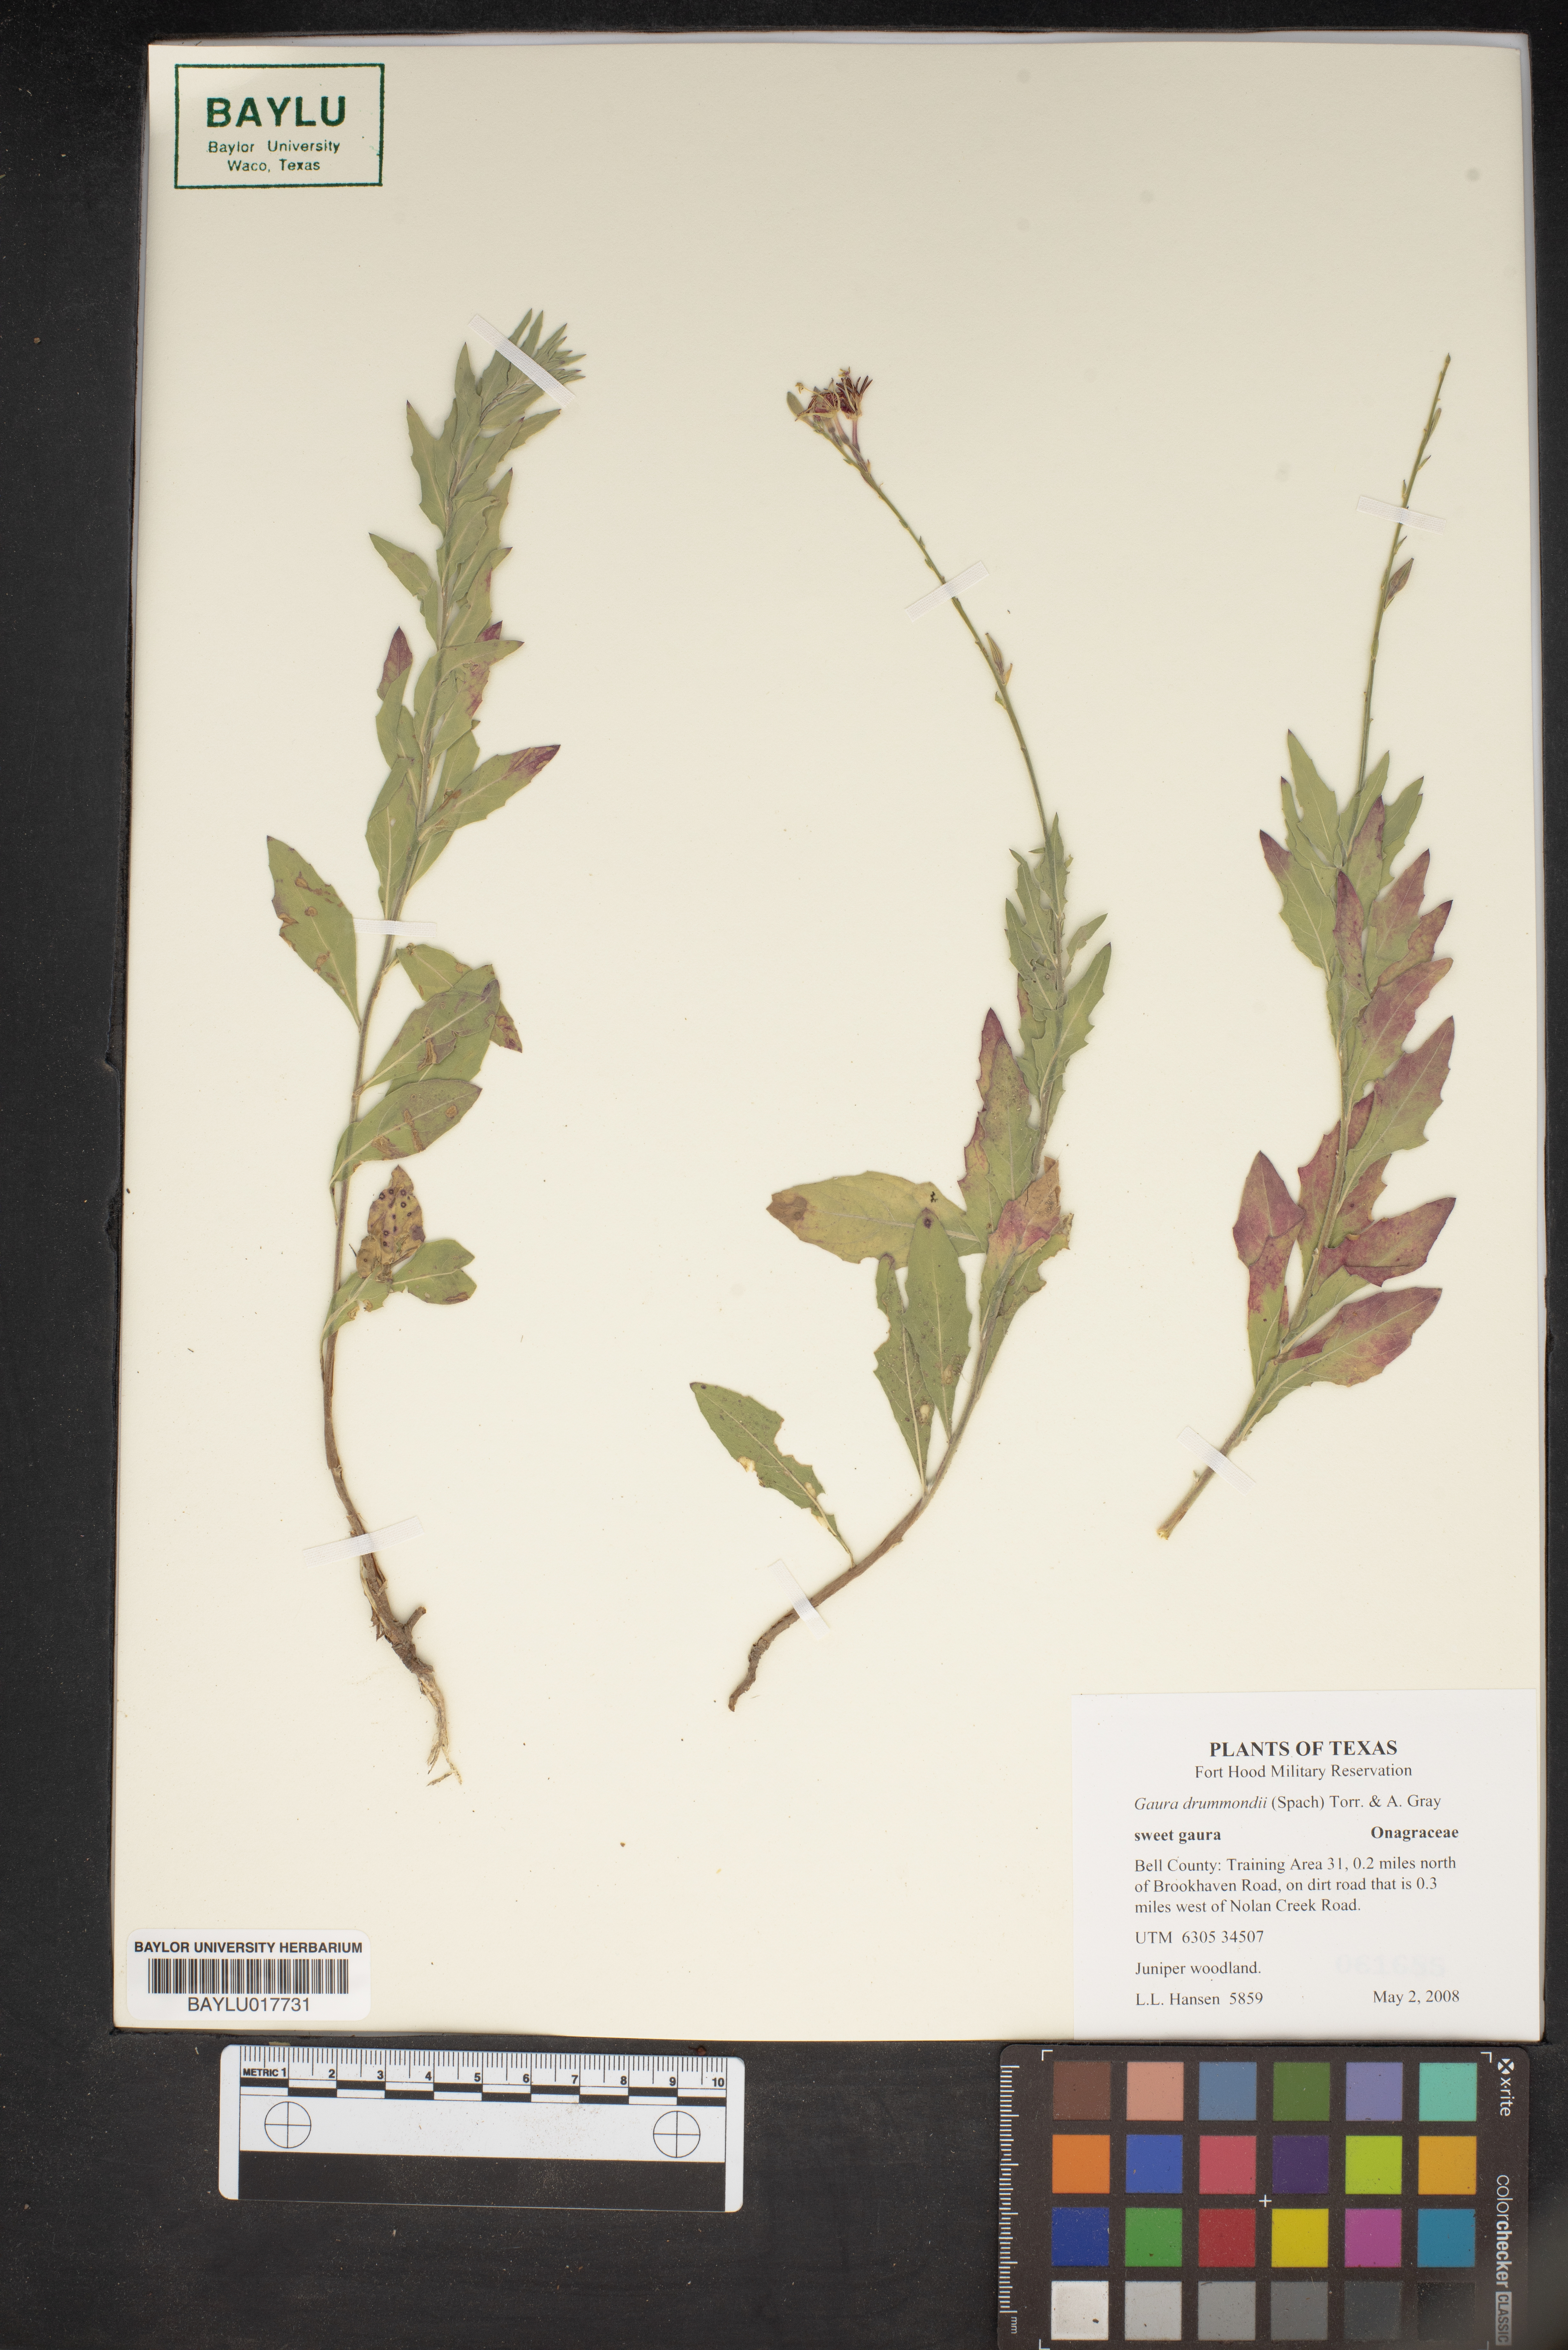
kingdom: Plantae
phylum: Tracheophyta
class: Magnoliopsida
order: Myrtales
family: Onagraceae
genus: Oenothera
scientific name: Oenothera hispida
